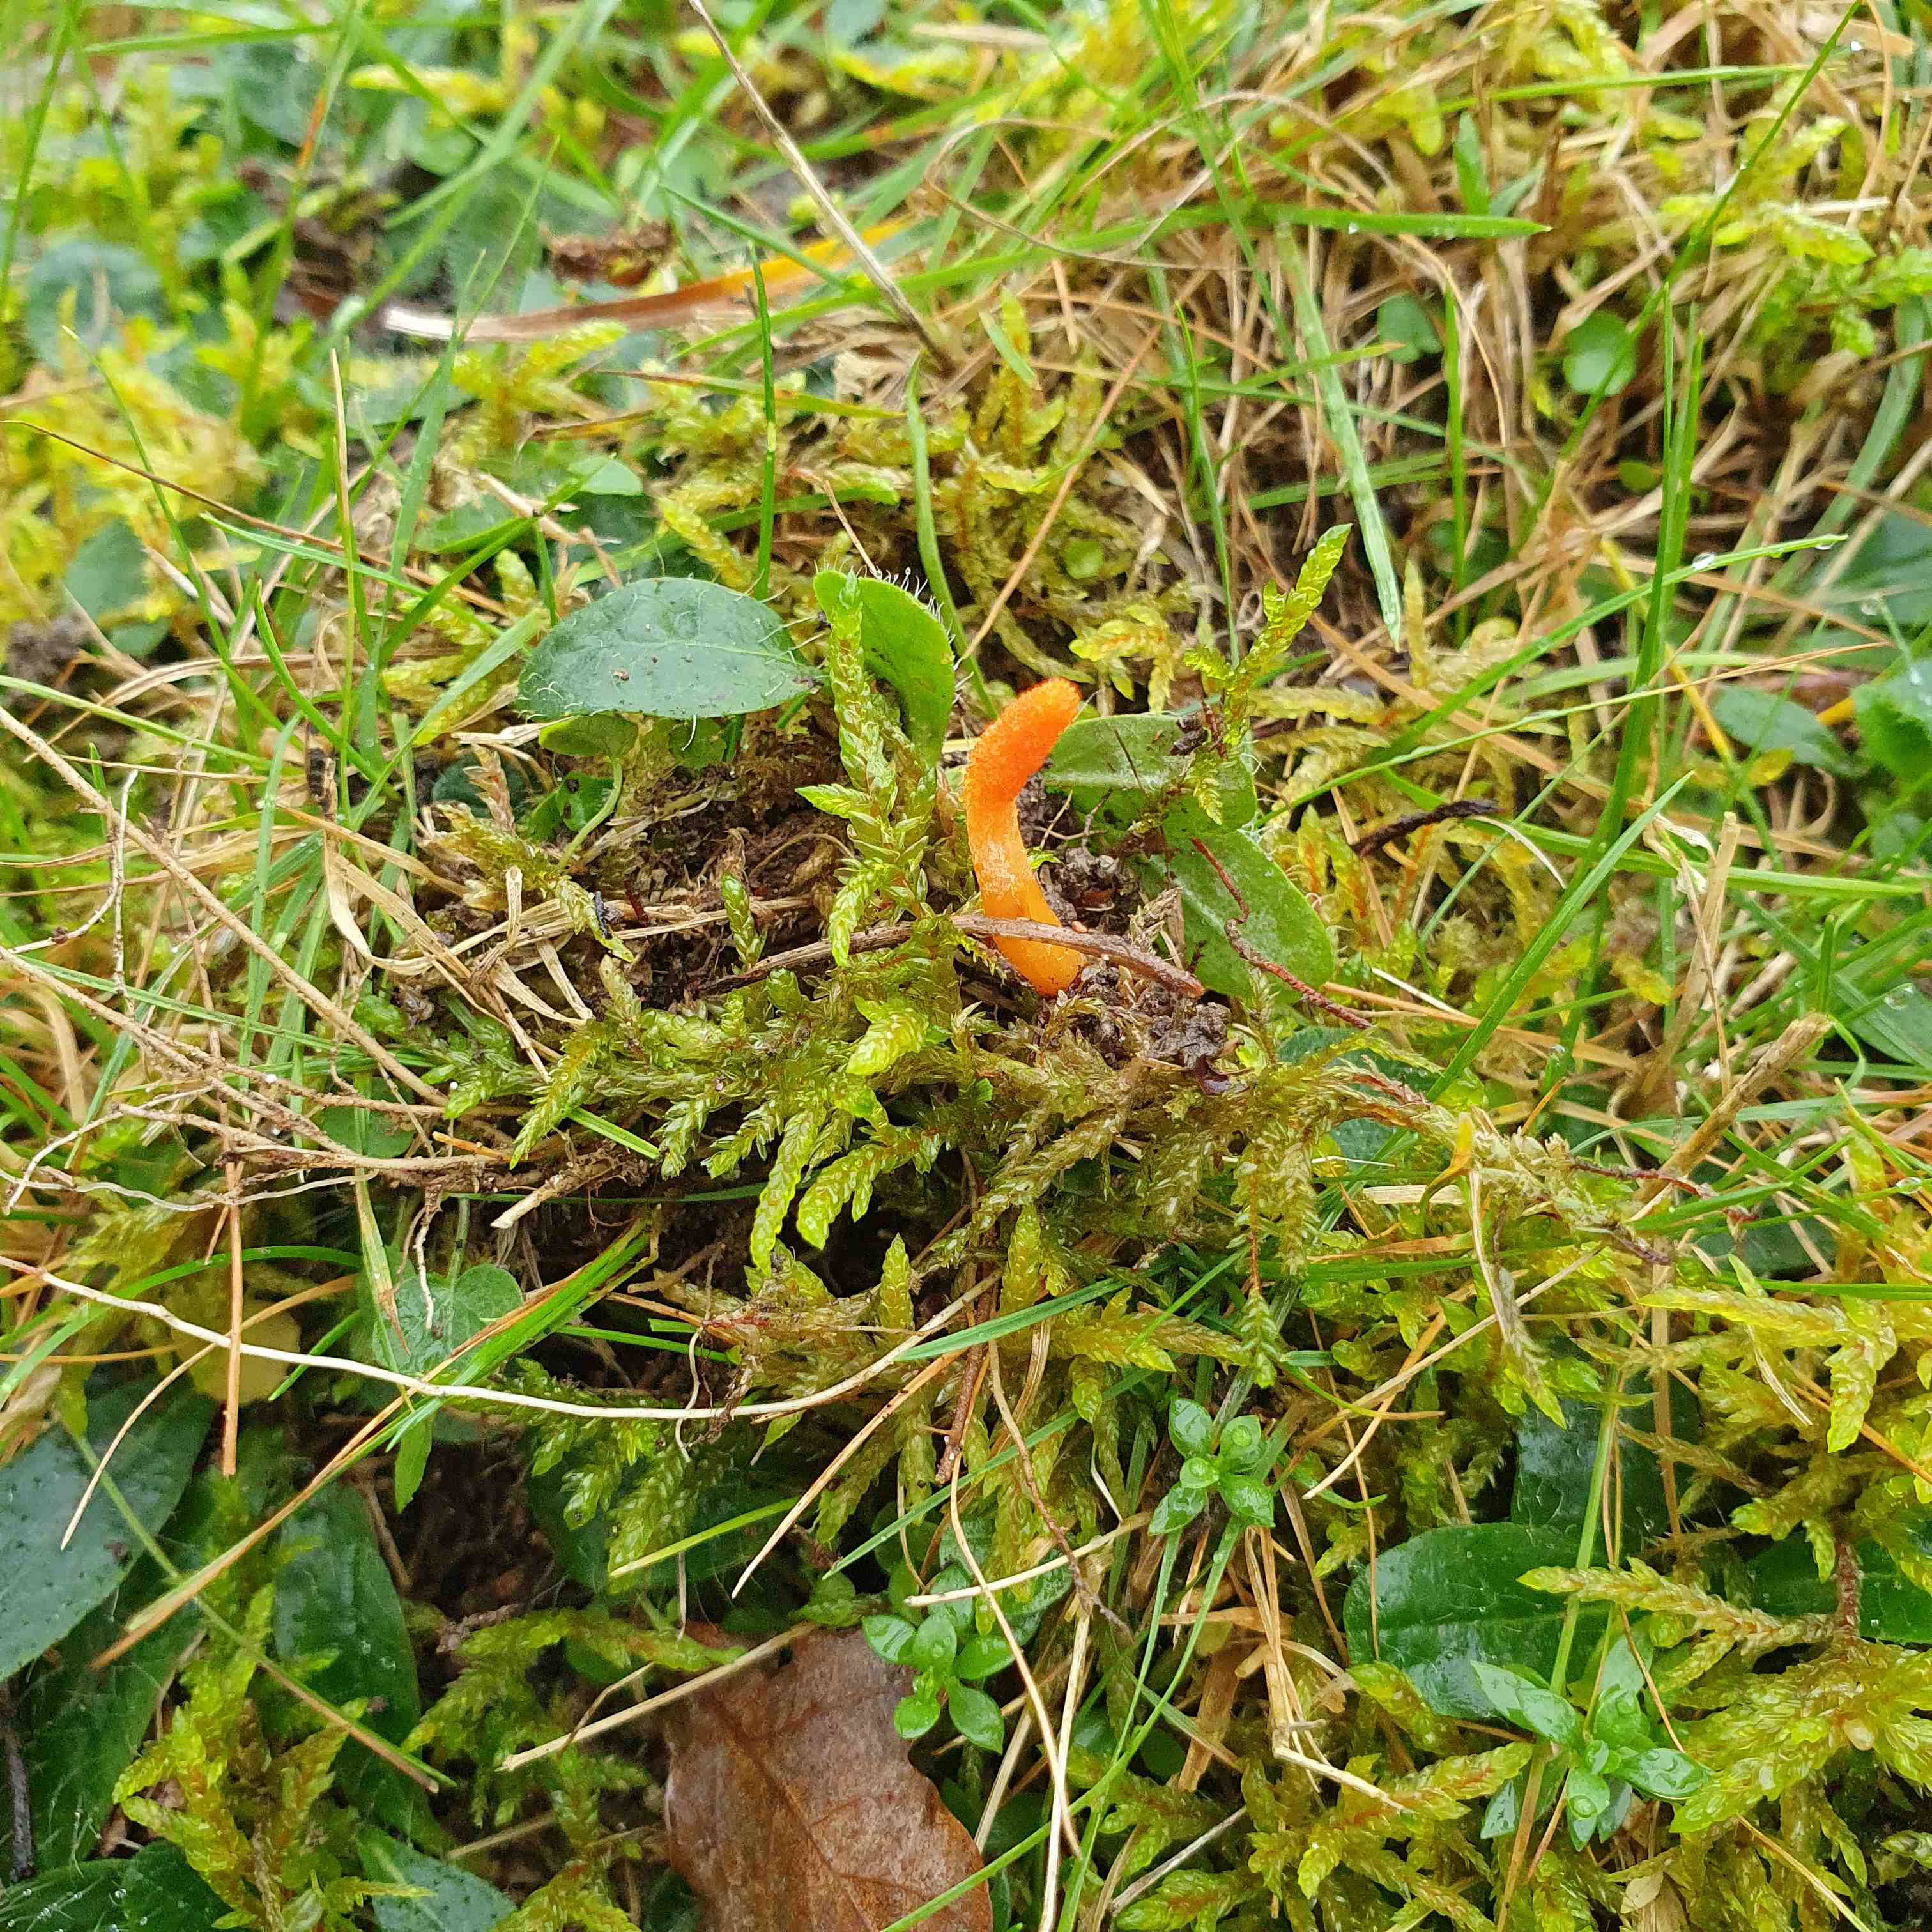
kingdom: Fungi
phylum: Ascomycota
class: Sordariomycetes
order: Hypocreales
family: Cordycipitaceae
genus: Cordyceps
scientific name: Cordyceps militaris
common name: puppe-snyltekølle
